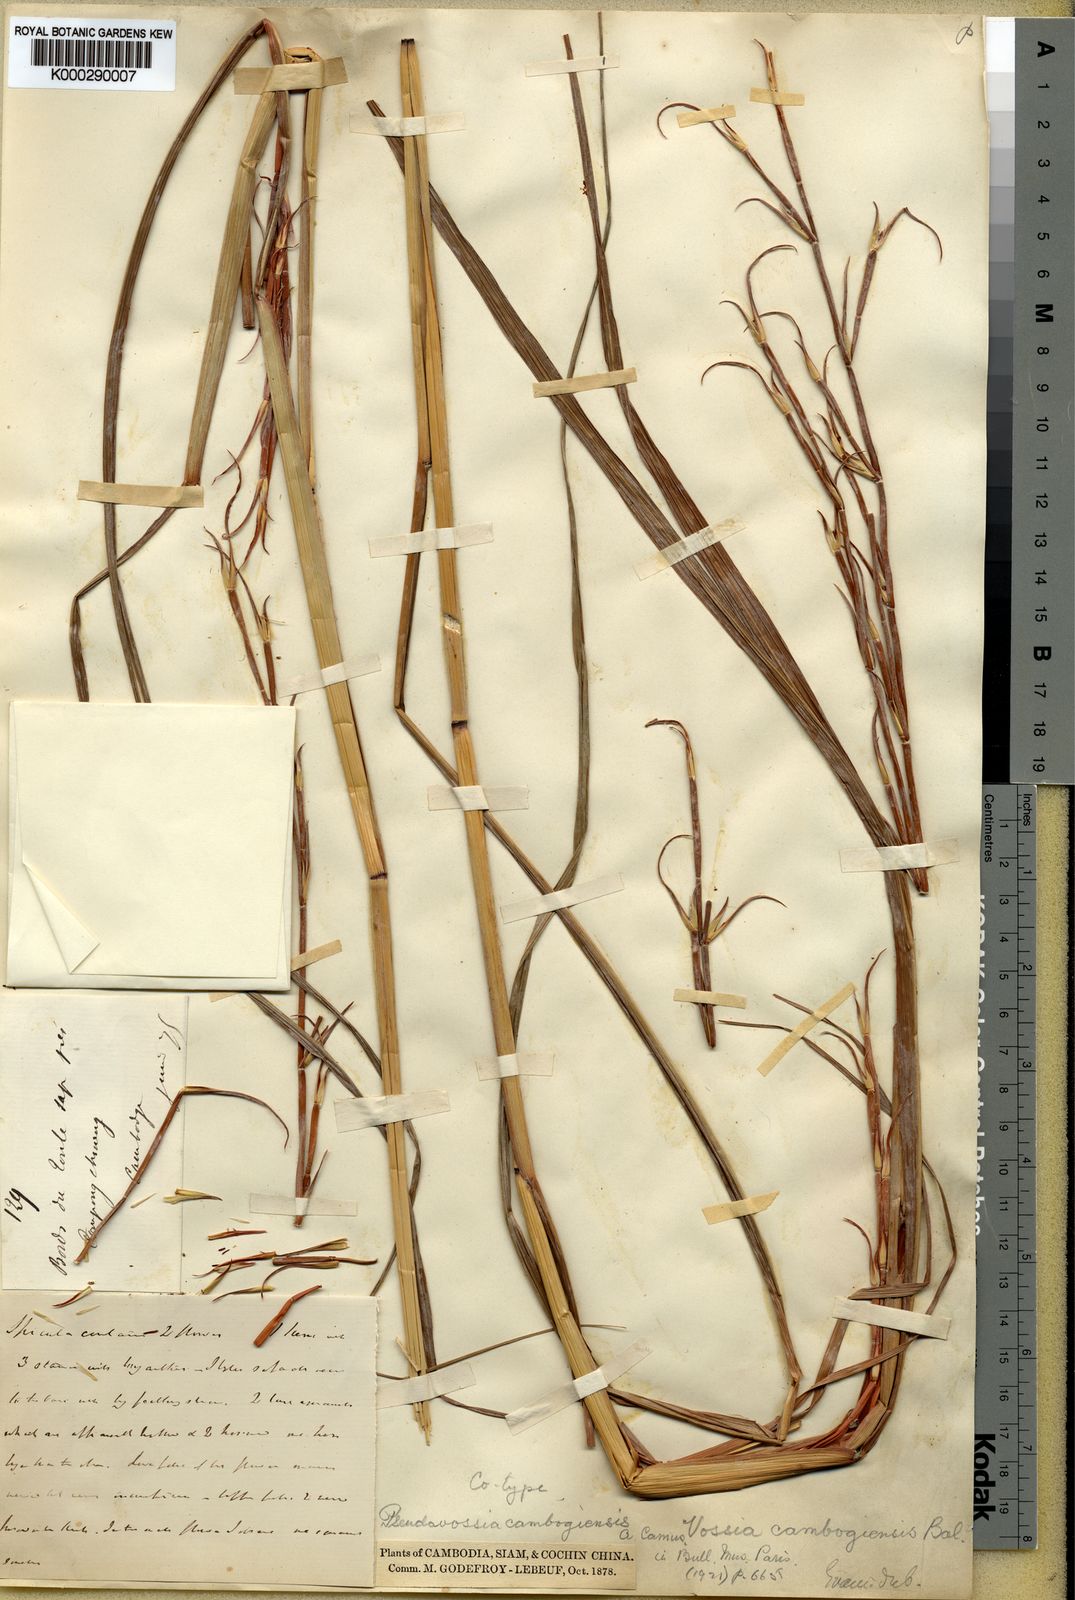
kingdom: Plantae
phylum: Tracheophyta
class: Liliopsida
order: Poales
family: Poaceae
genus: Phacelurus
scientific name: Phacelurus cambogiensis
